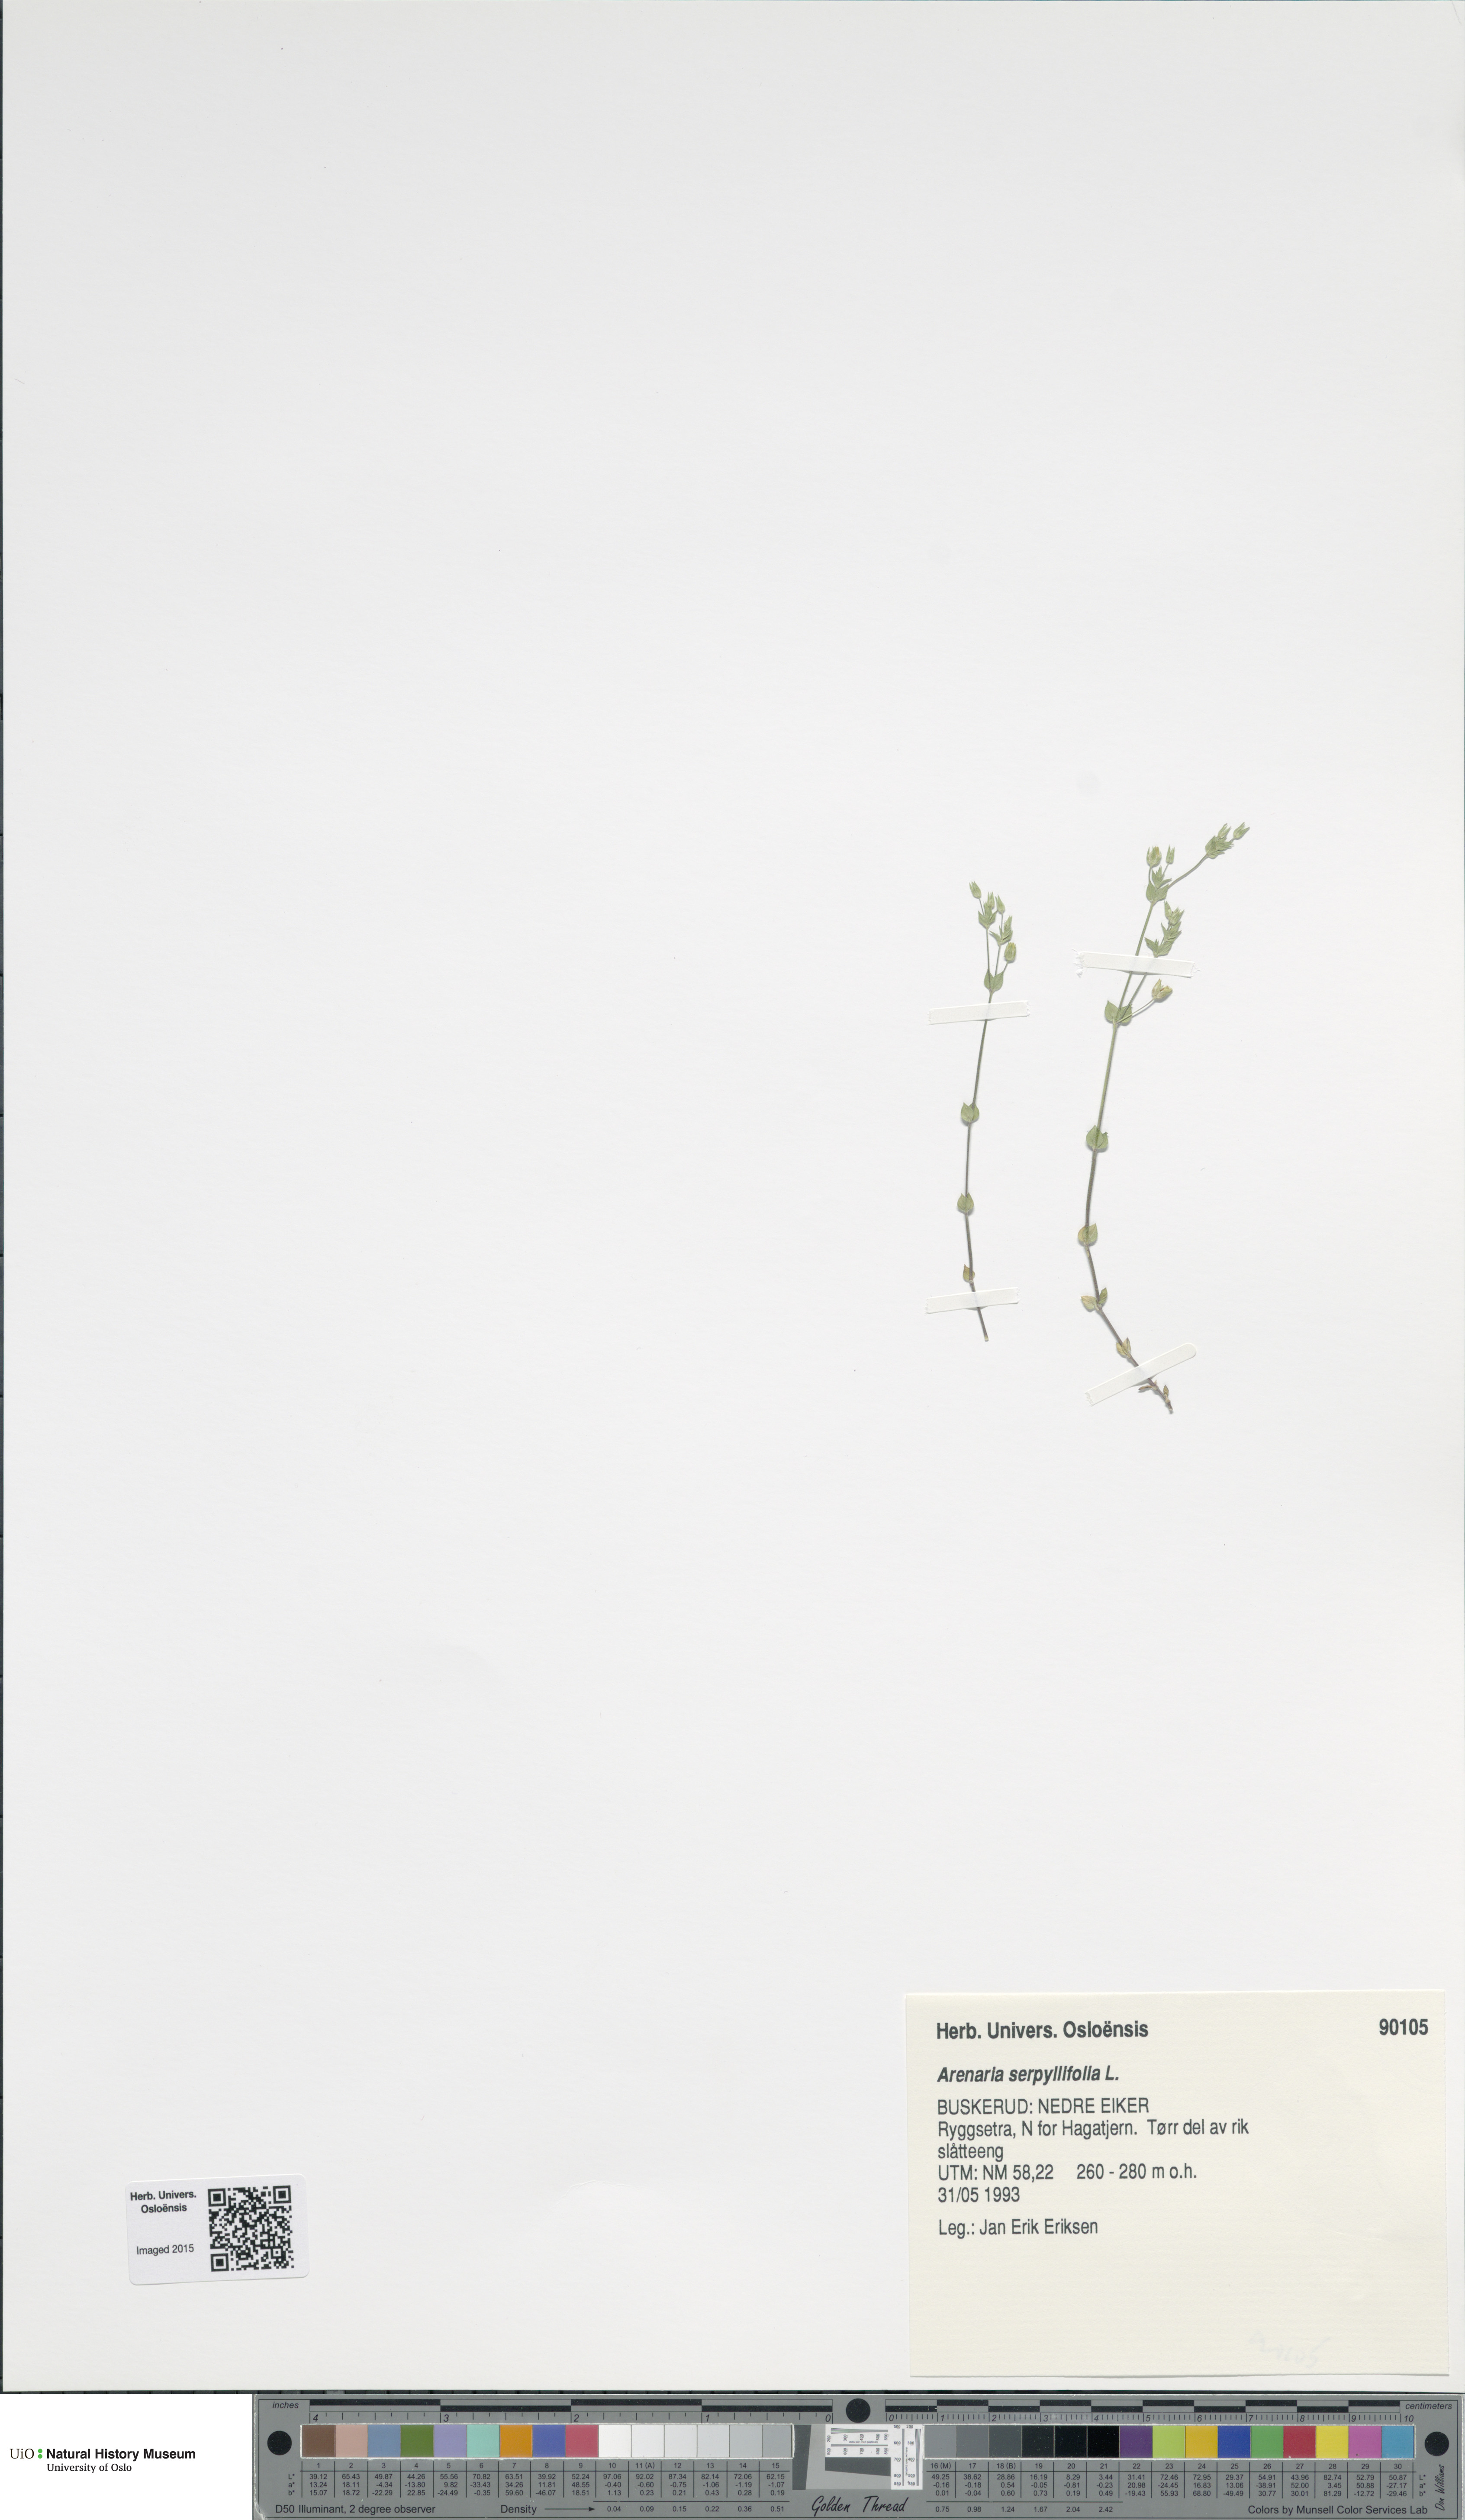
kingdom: Plantae
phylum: Tracheophyta
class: Magnoliopsida
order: Caryophyllales
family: Caryophyllaceae
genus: Arenaria
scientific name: Arenaria serpyllifolia
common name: Thyme-leaved sandwort
